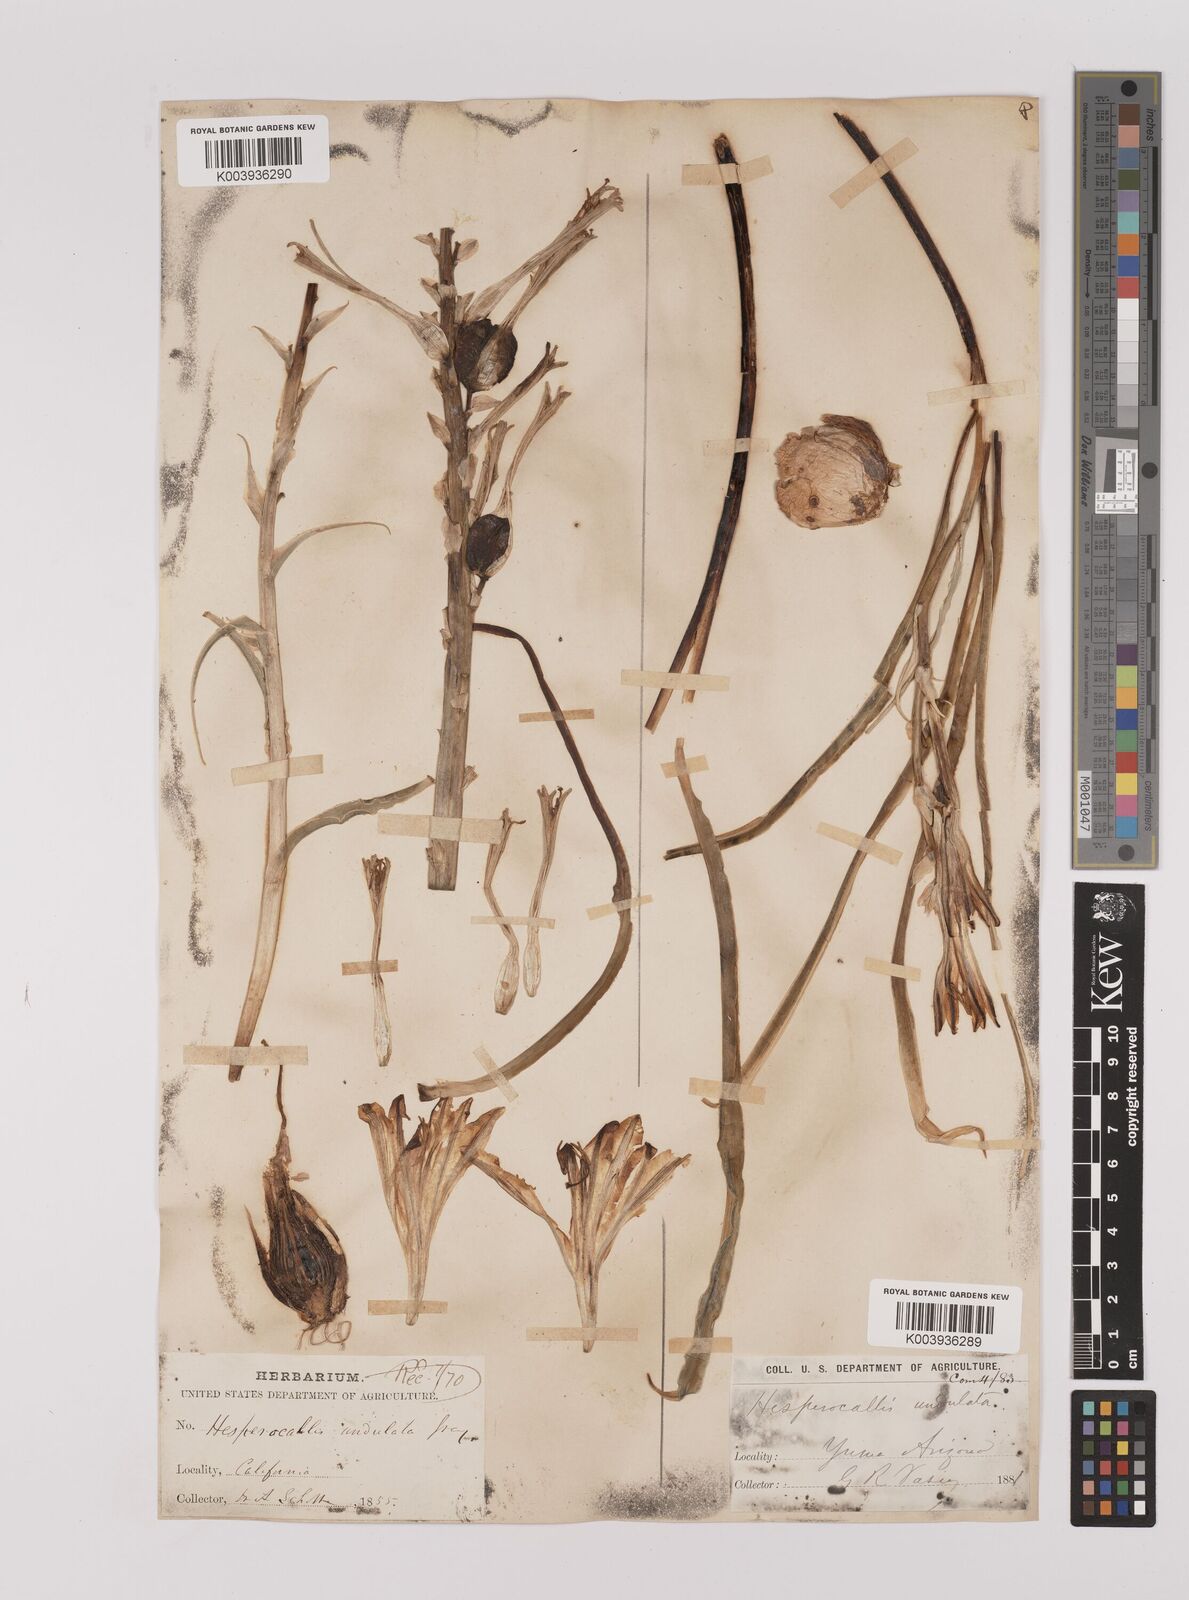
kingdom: Plantae
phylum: Tracheophyta
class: Liliopsida
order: Asparagales
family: Asparagaceae
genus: Hesperocallis
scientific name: Hesperocallis
